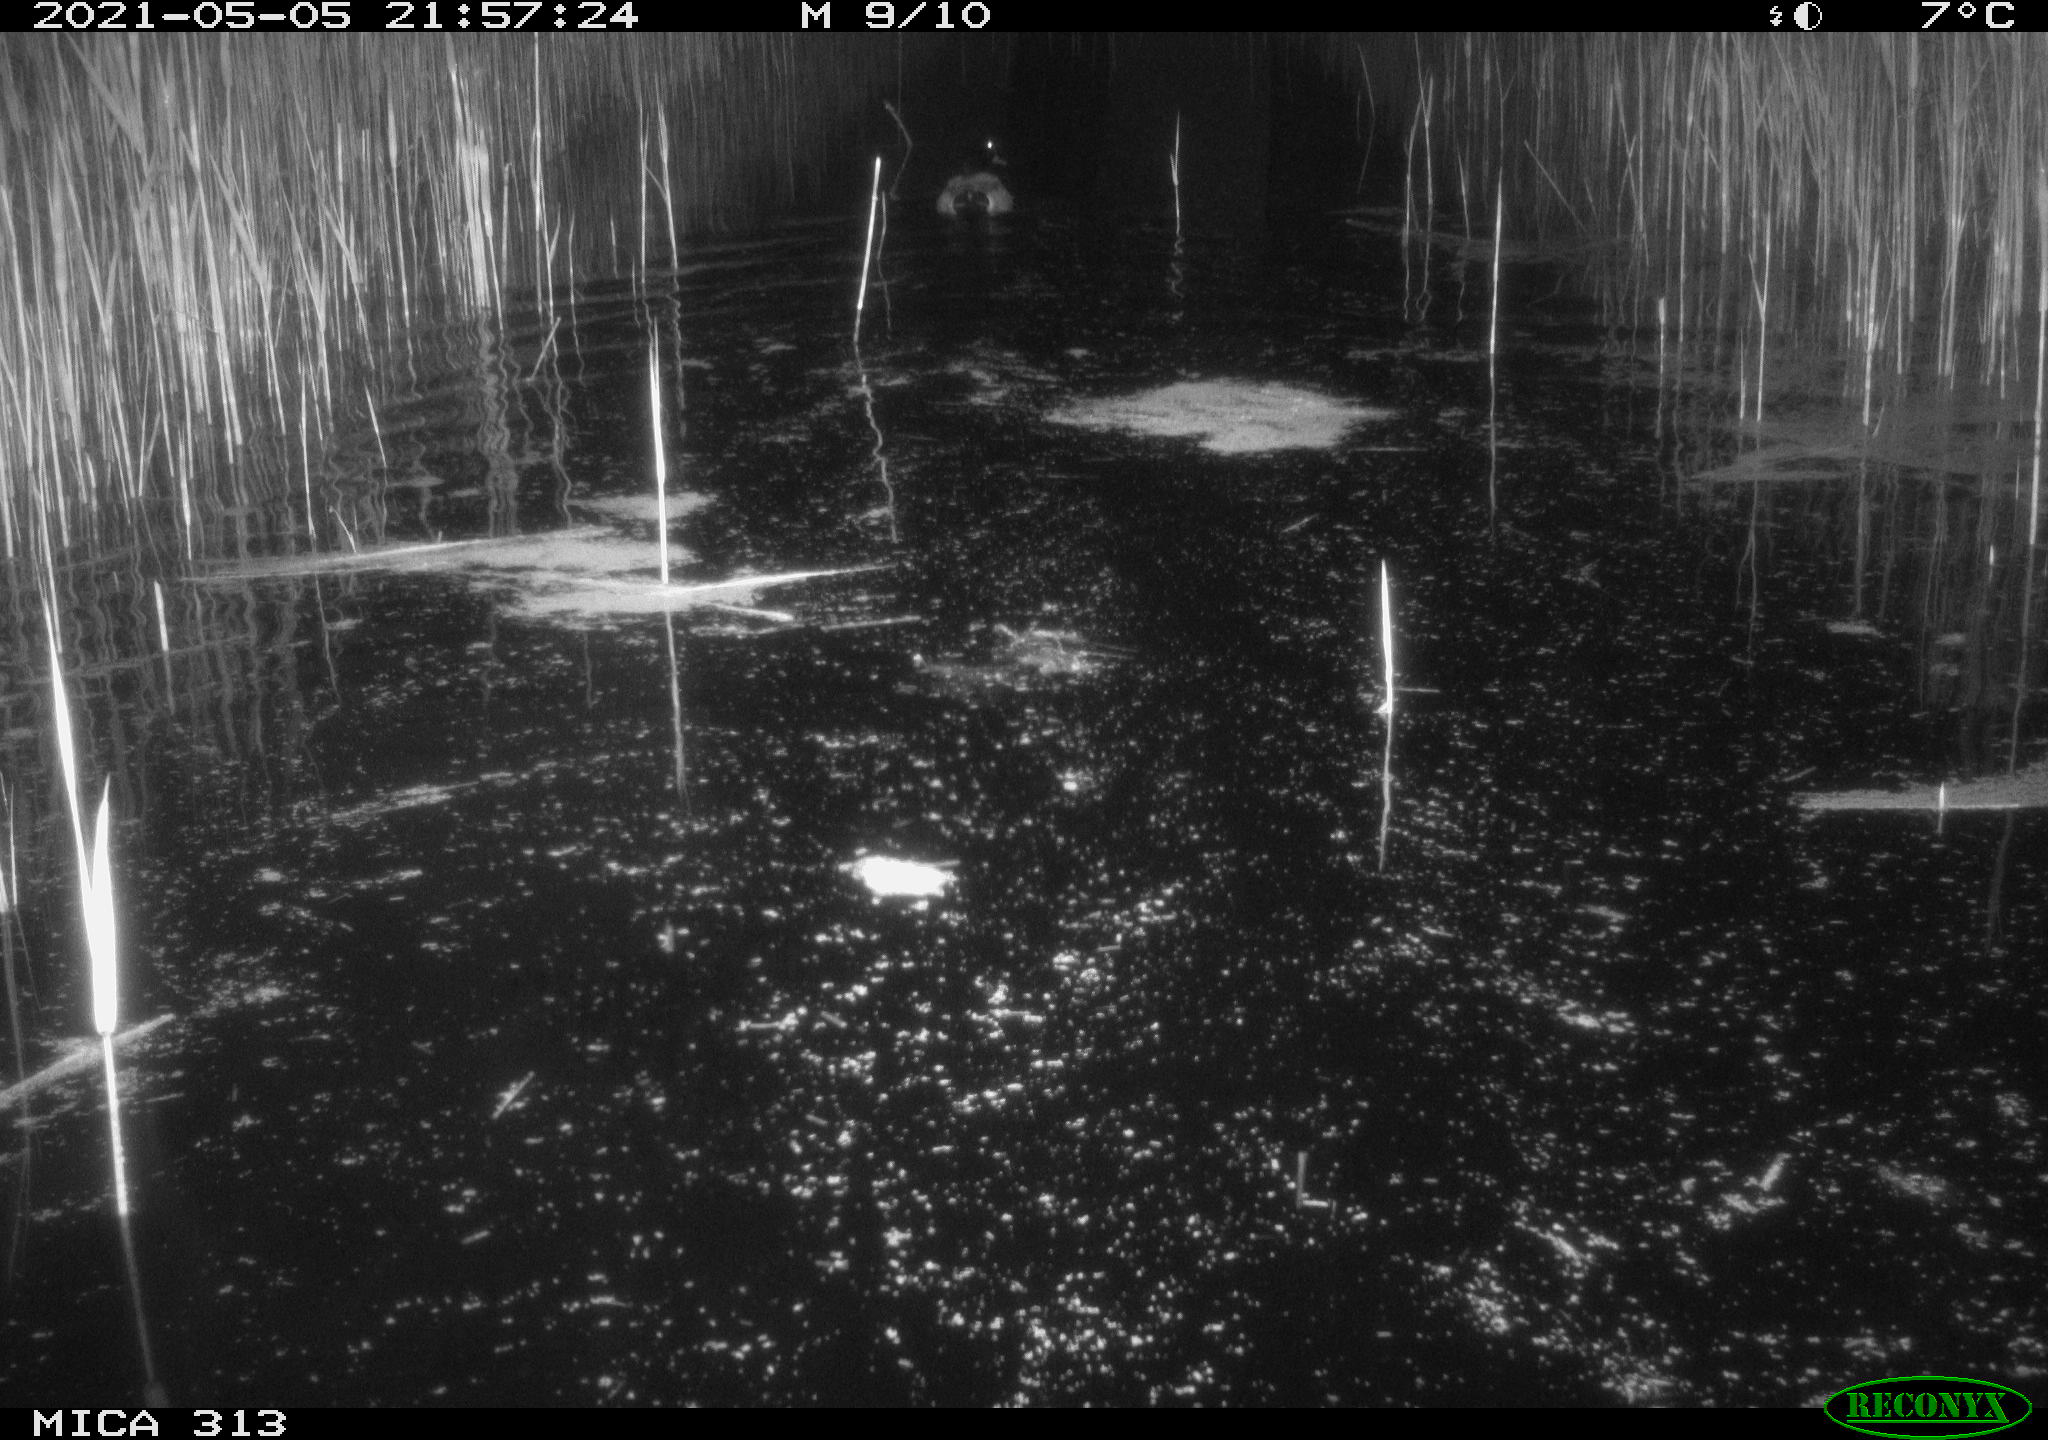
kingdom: Animalia
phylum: Chordata
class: Aves
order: Anseriformes
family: Anatidae
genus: Anas
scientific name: Anas platyrhynchos
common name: Mallard
